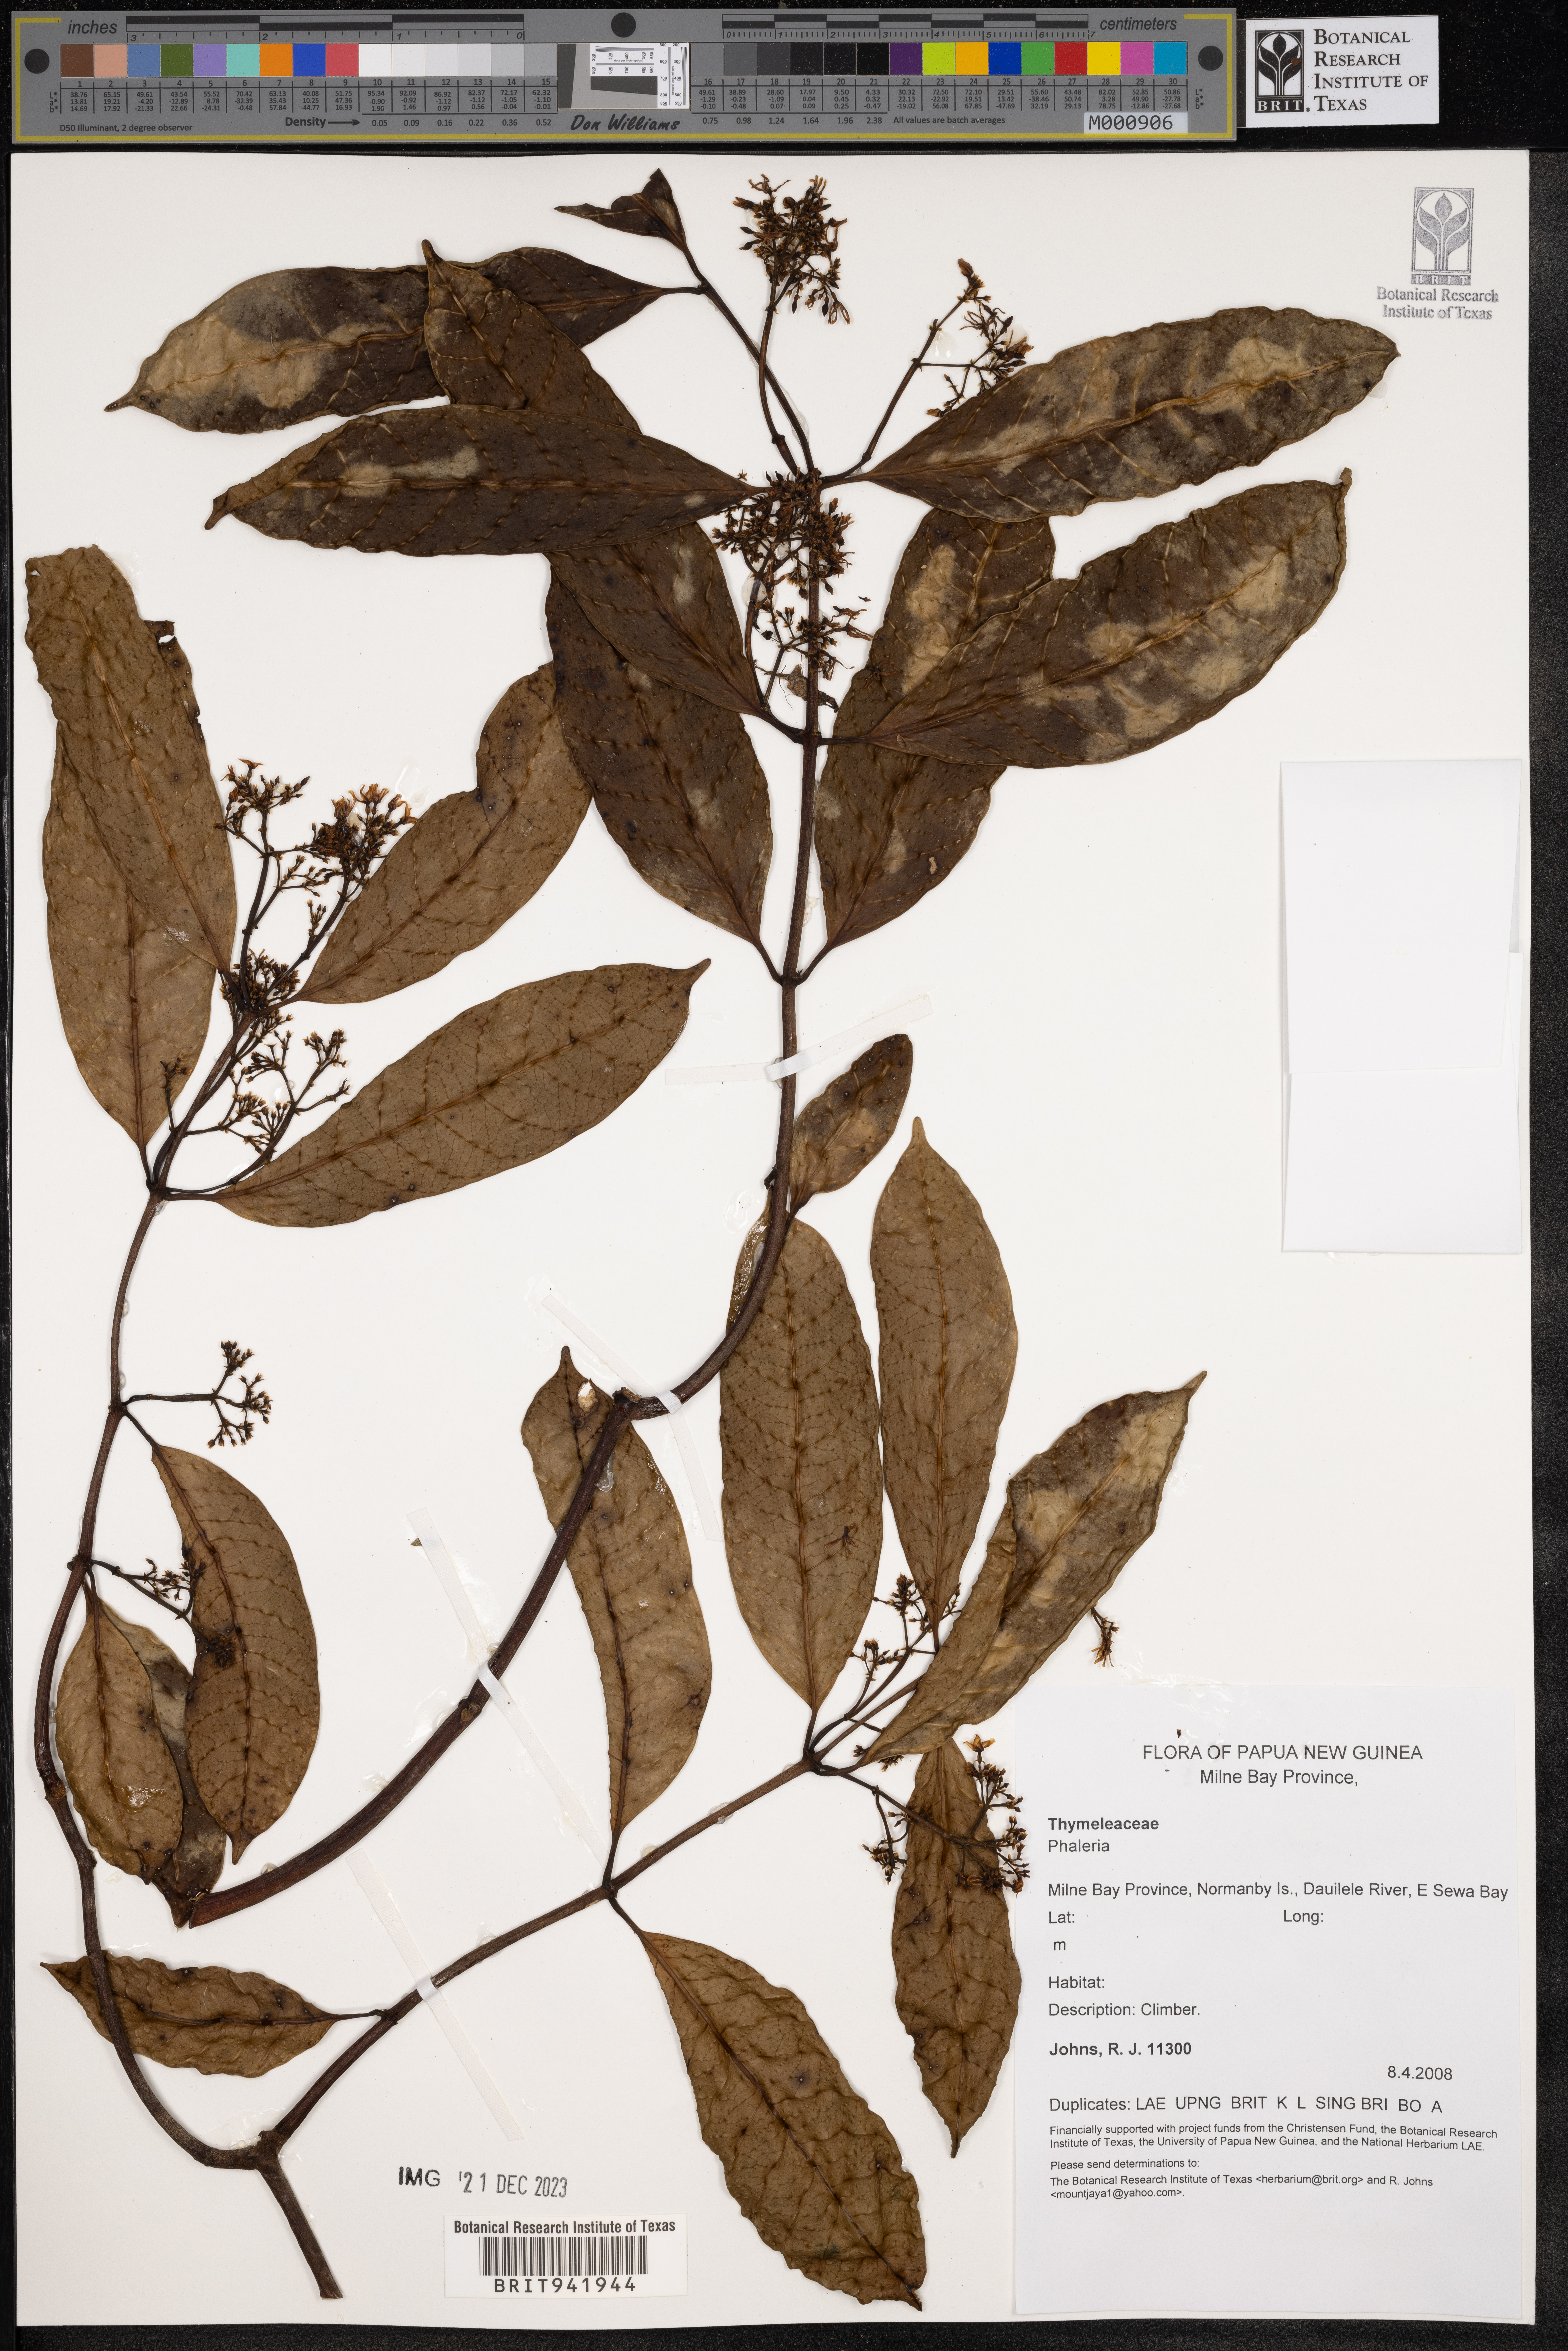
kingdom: Plantae
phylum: Tracheophyta
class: Magnoliopsida
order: Malvales
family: Thymelaeaceae
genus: Phaleria
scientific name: Phaleria
